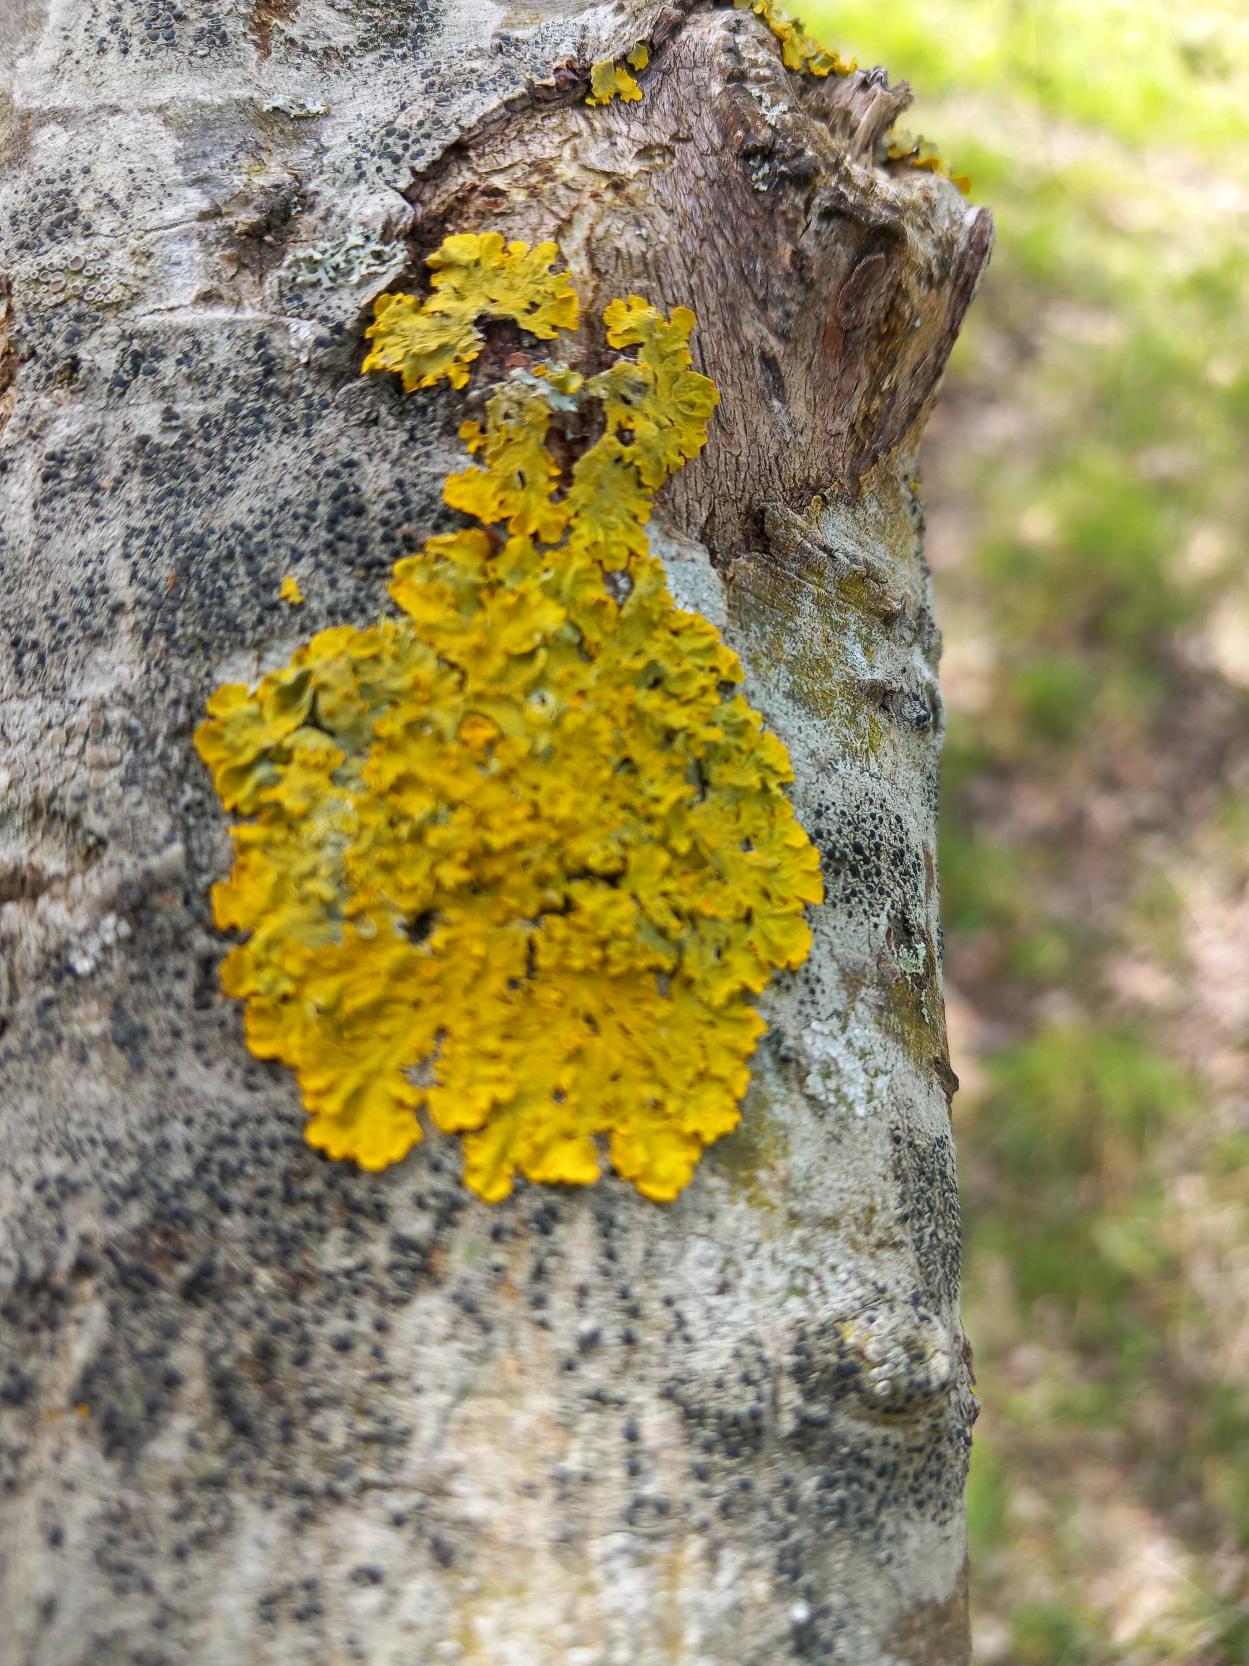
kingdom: Fungi
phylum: Ascomycota
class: Lecanoromycetes
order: Teloschistales
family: Teloschistaceae
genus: Xanthoria
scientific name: Xanthoria parietina
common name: Almindelig væggelav
